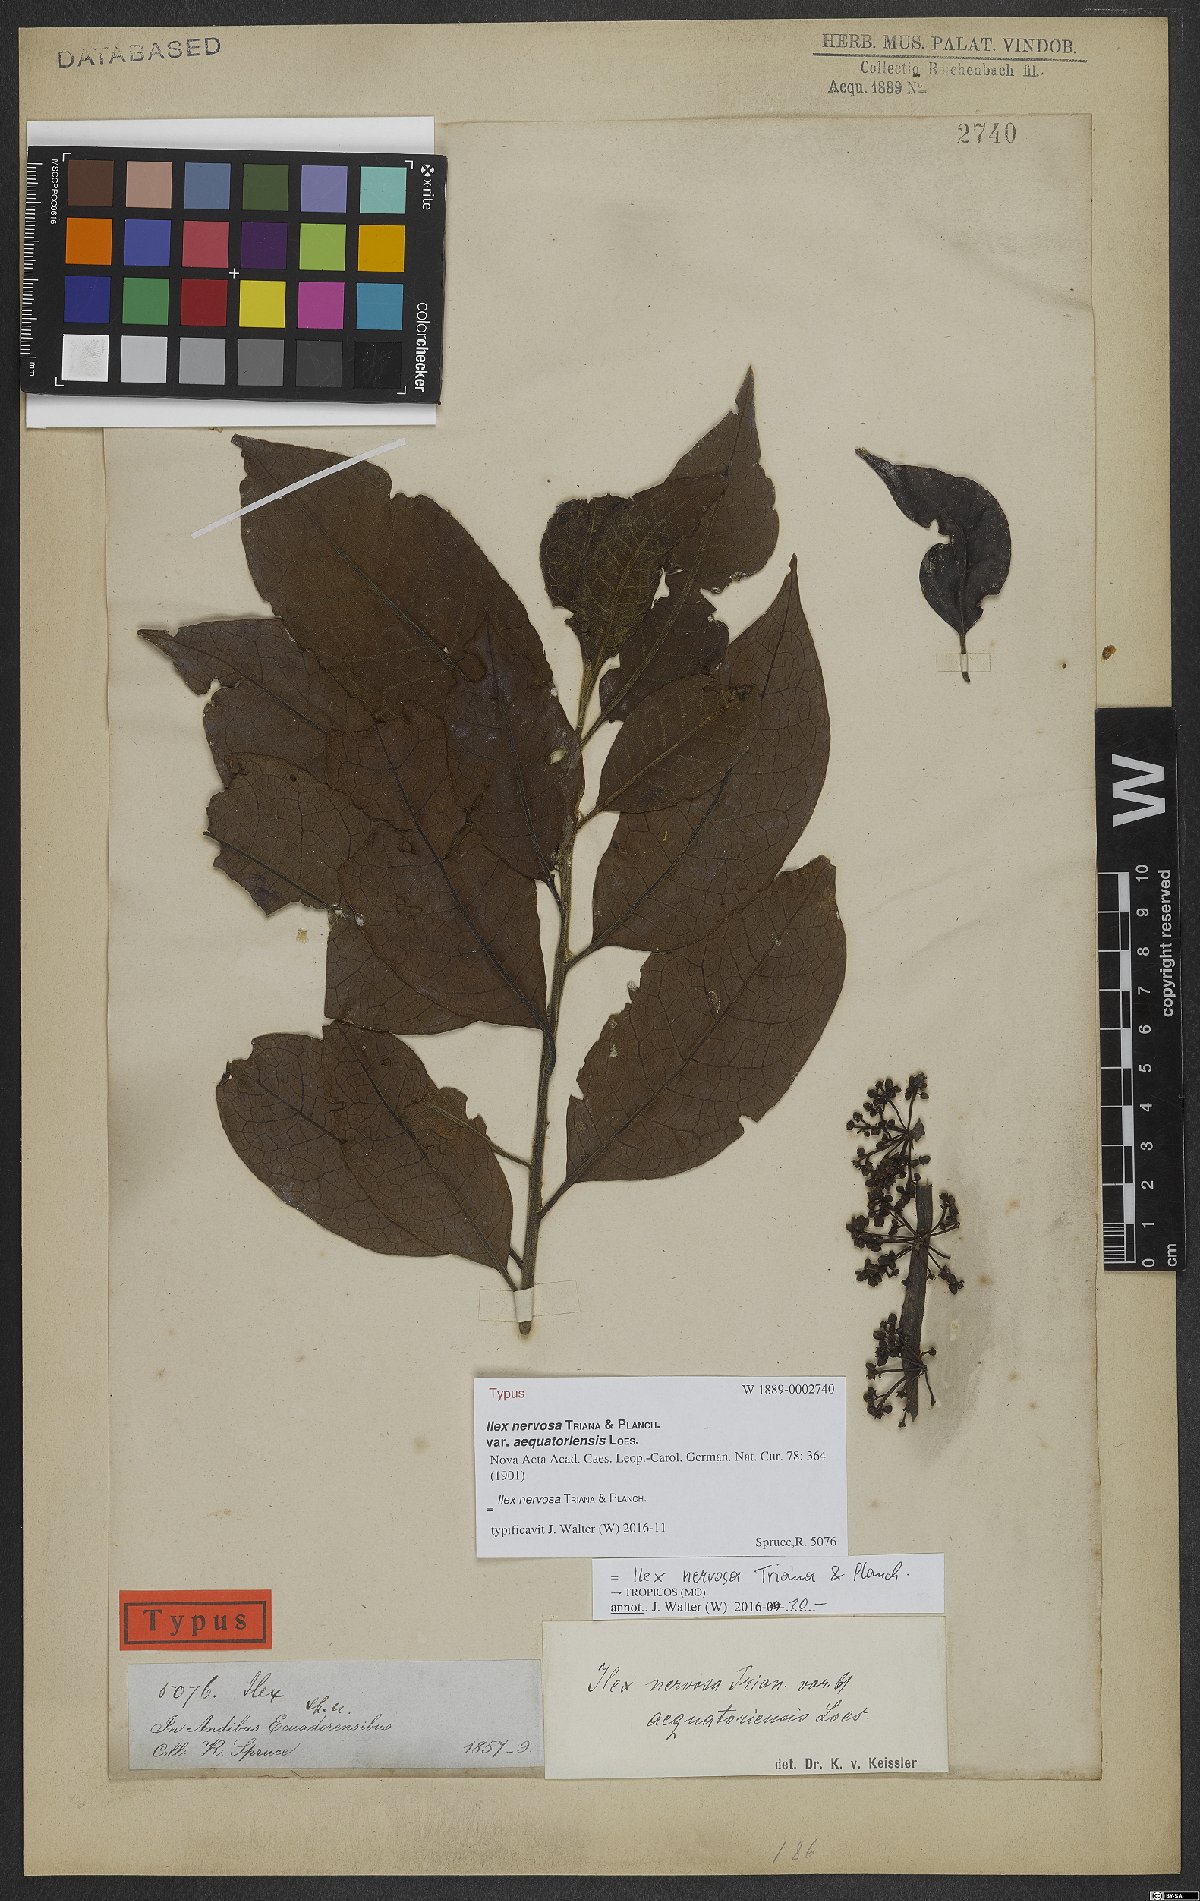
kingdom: Plantae
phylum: Tracheophyta
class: Magnoliopsida
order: Aquifoliales
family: Aquifoliaceae
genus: Ilex
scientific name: Ilex nervosa
